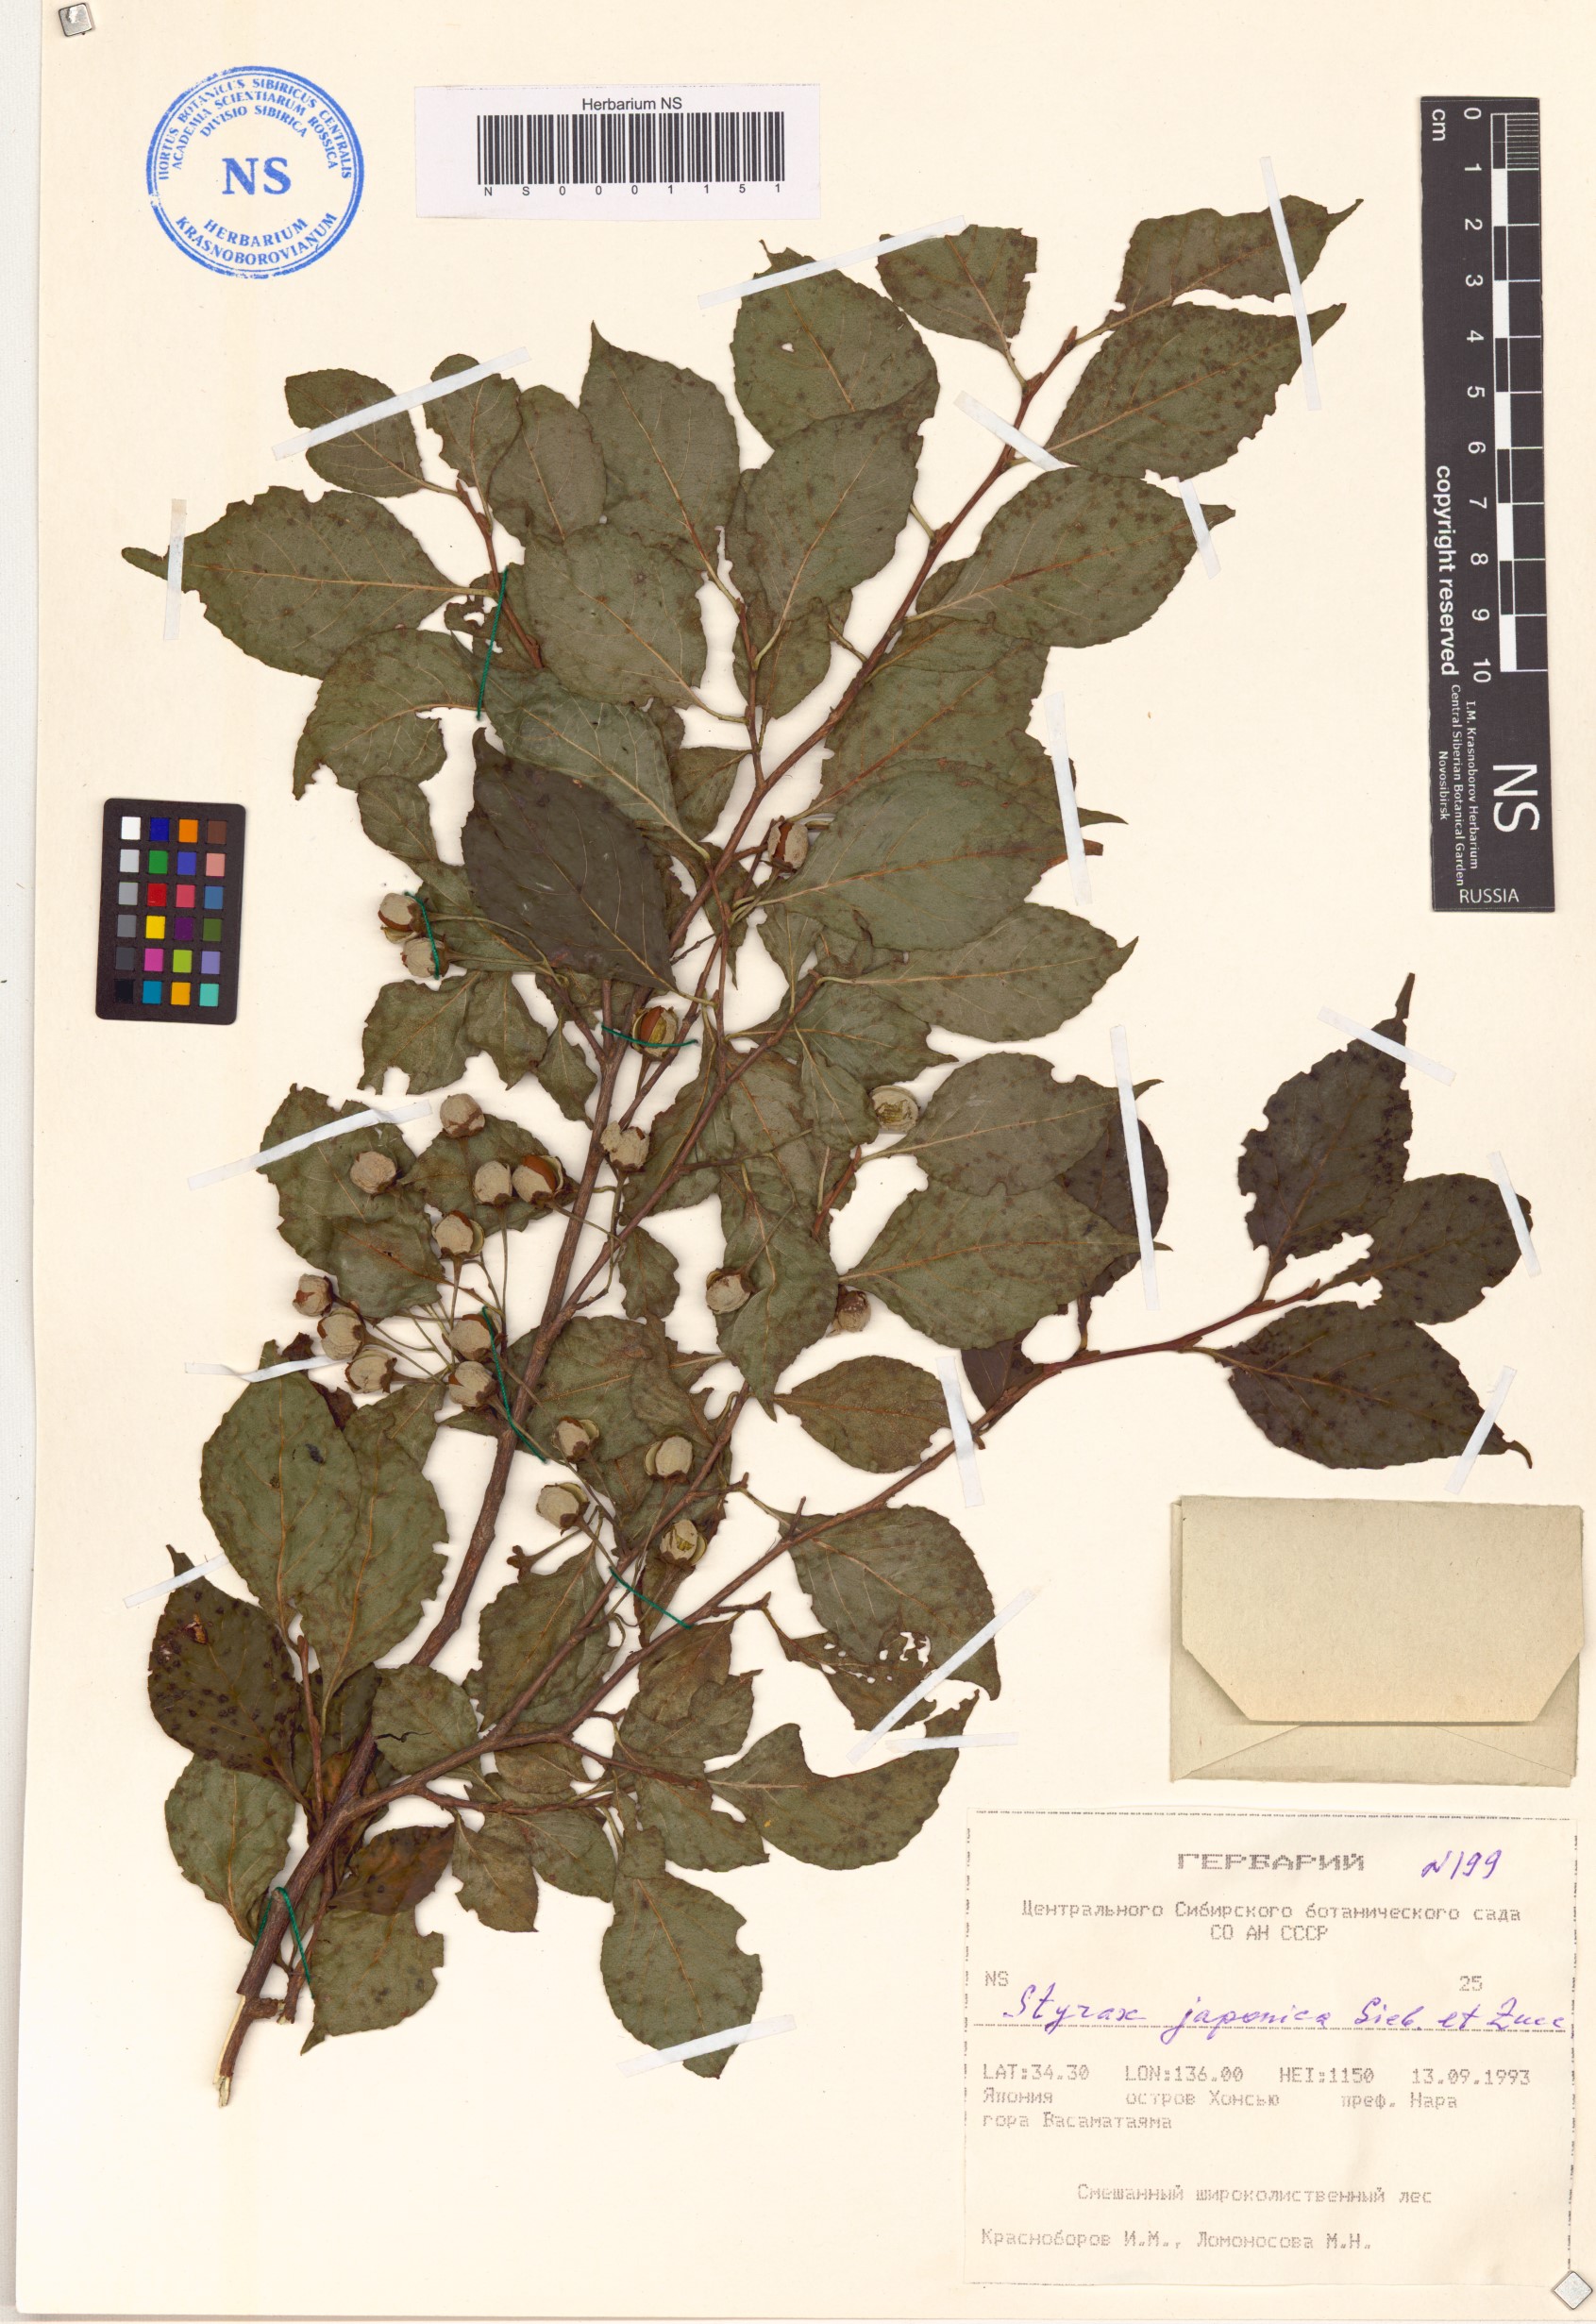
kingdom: Plantae
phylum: Tracheophyta
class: Magnoliopsida
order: Ericales
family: Styracaceae
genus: Styrax
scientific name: Styrax japonicus
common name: Japanese snowbell
